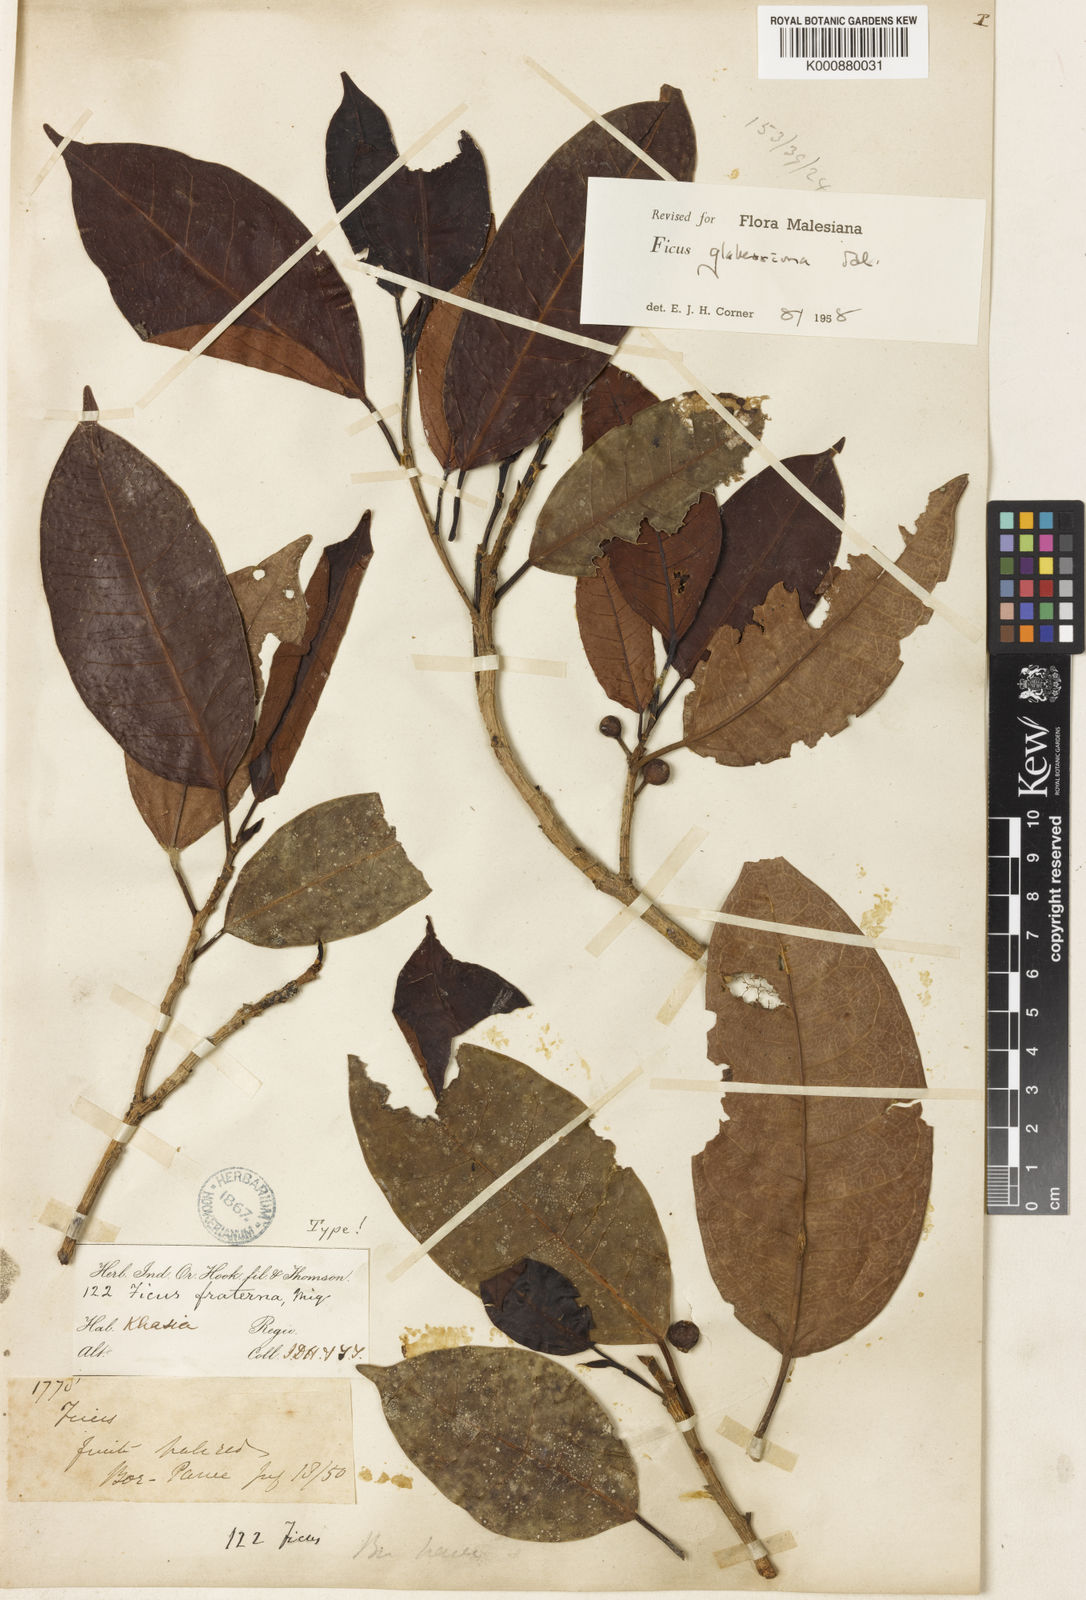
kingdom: Plantae
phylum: Tracheophyta
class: Magnoliopsida
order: Rosales
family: Moraceae
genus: Ficus
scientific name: Ficus glaberrima
